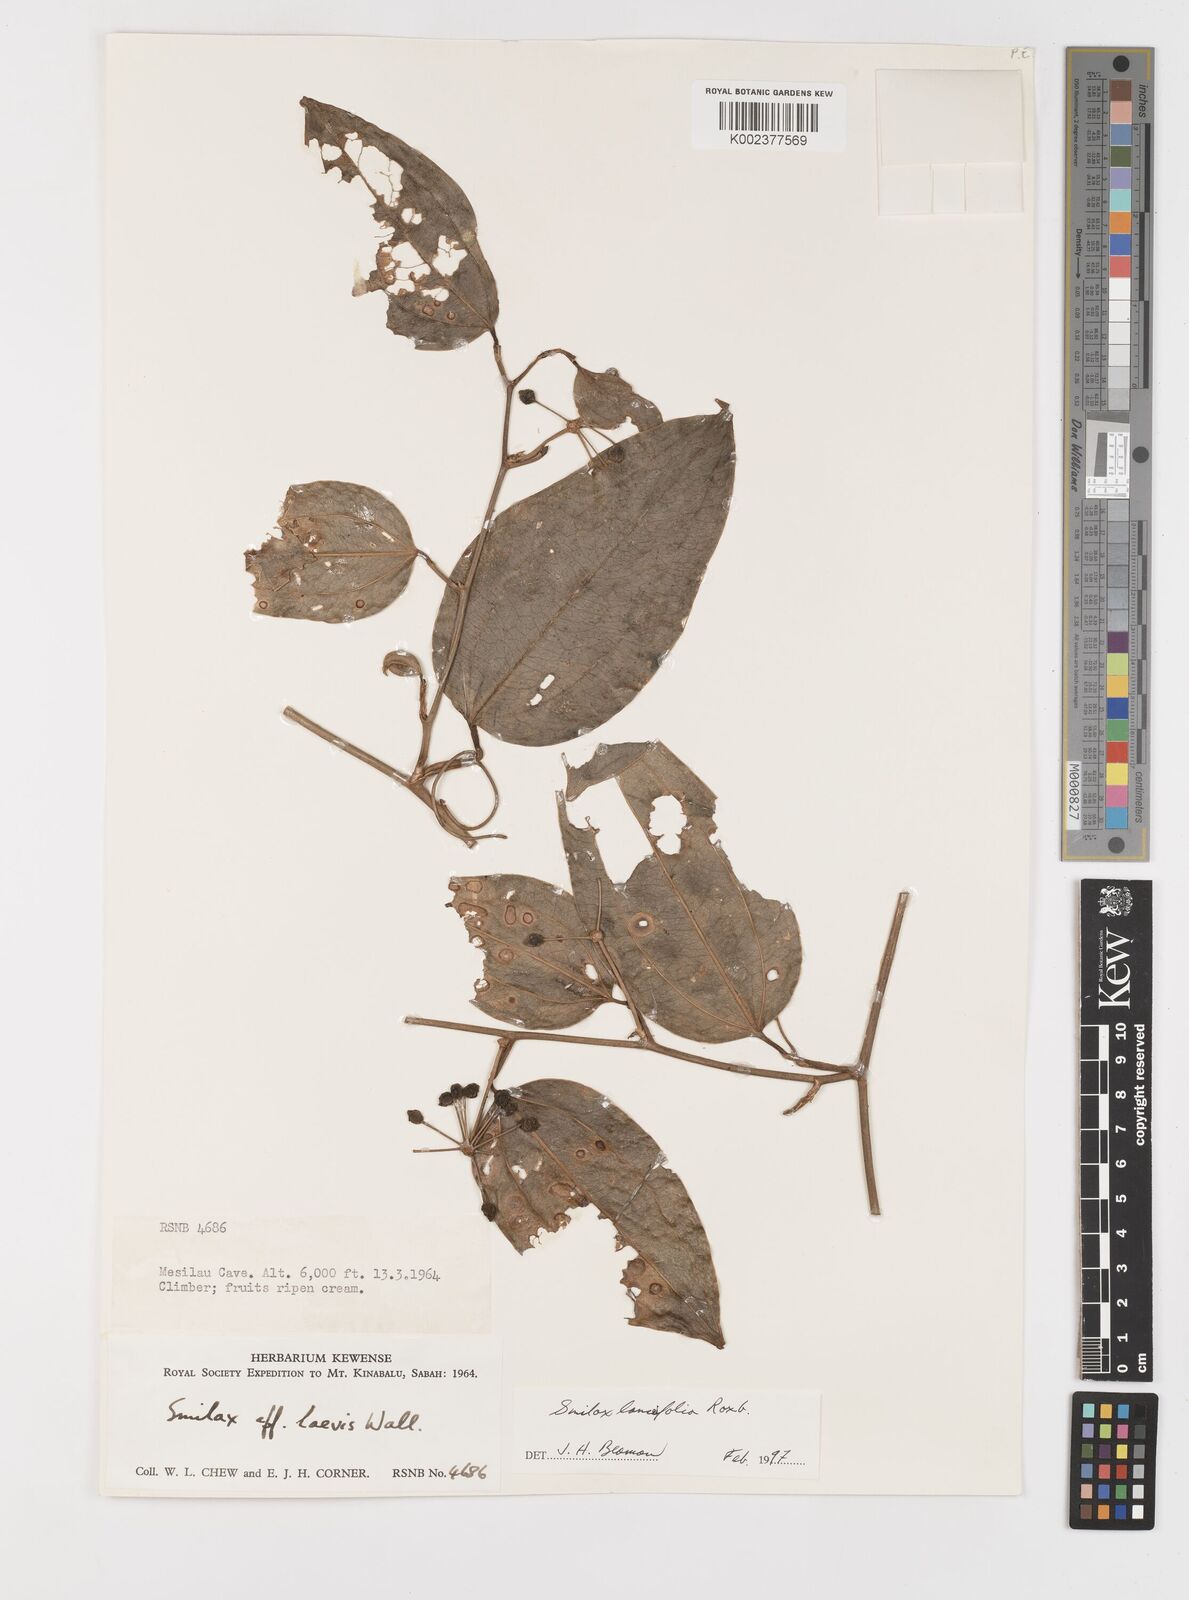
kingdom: Plantae
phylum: Tracheophyta
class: Liliopsida
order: Liliales
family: Smilacaceae
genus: Smilax
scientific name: Smilax lanceifolia
